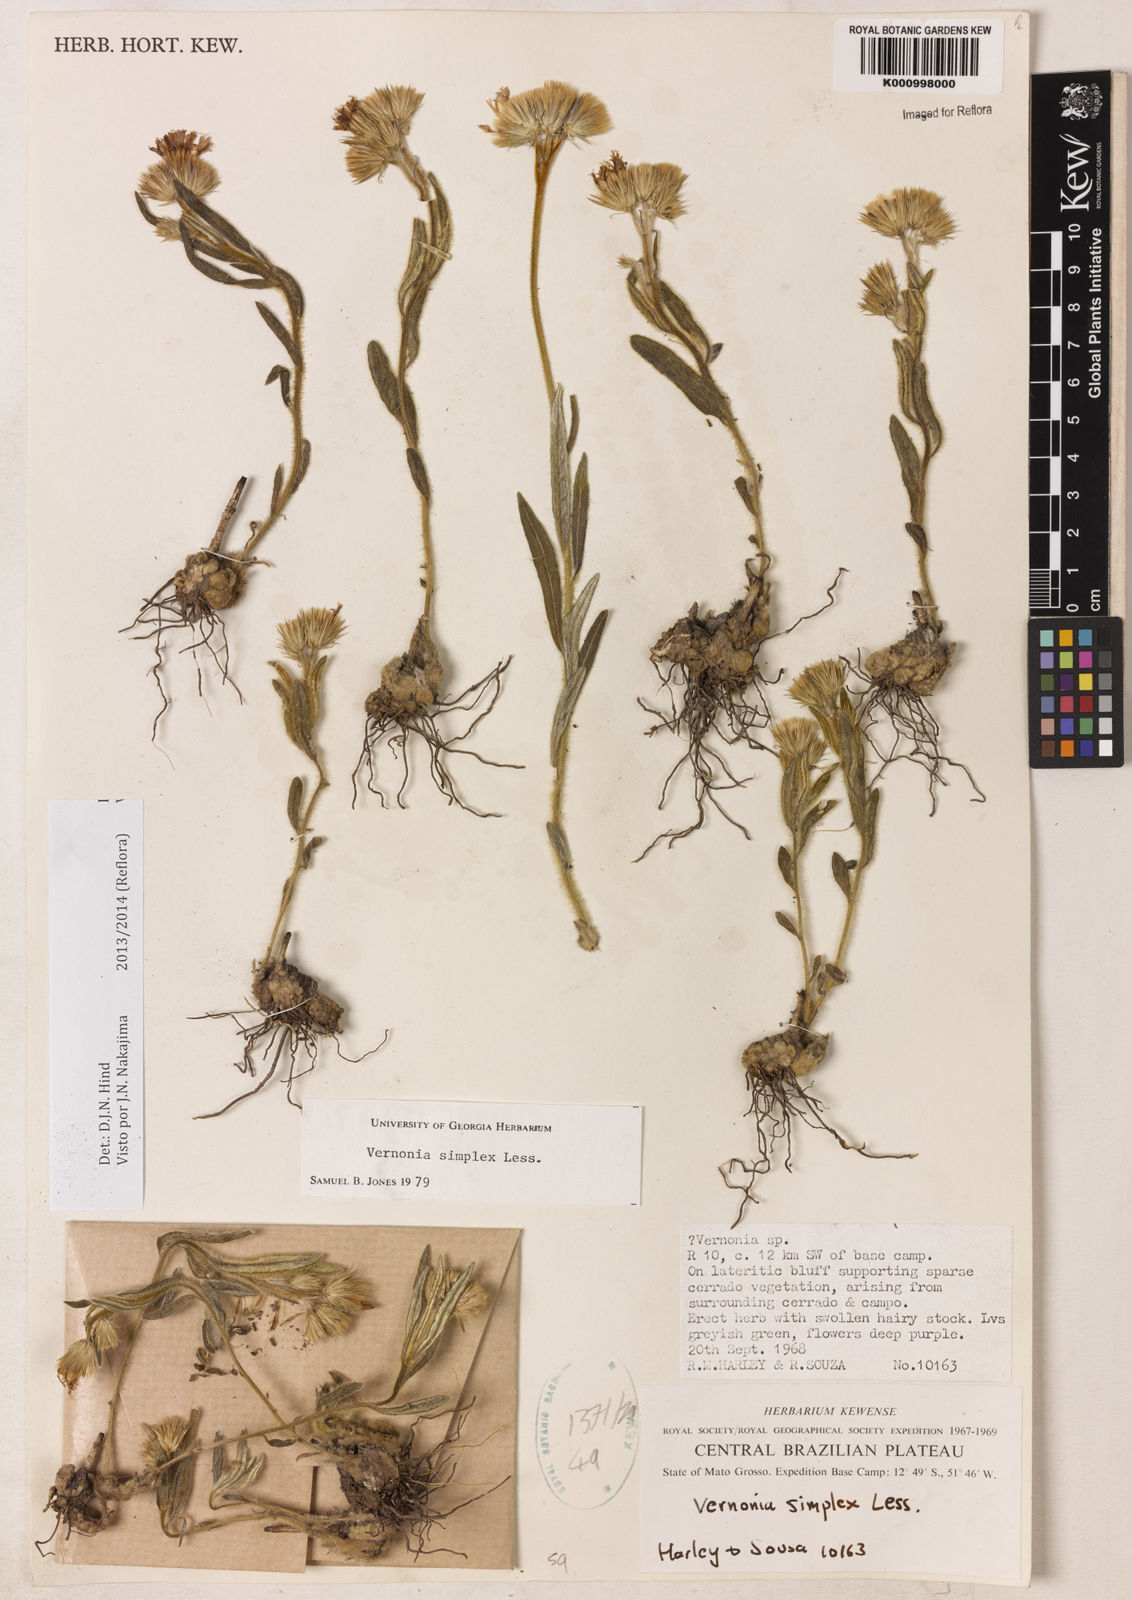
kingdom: Plantae
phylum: Tracheophyta
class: Magnoliopsida
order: Asterales
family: Asteraceae
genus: Chrysolaena
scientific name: Chrysolaena simplex
